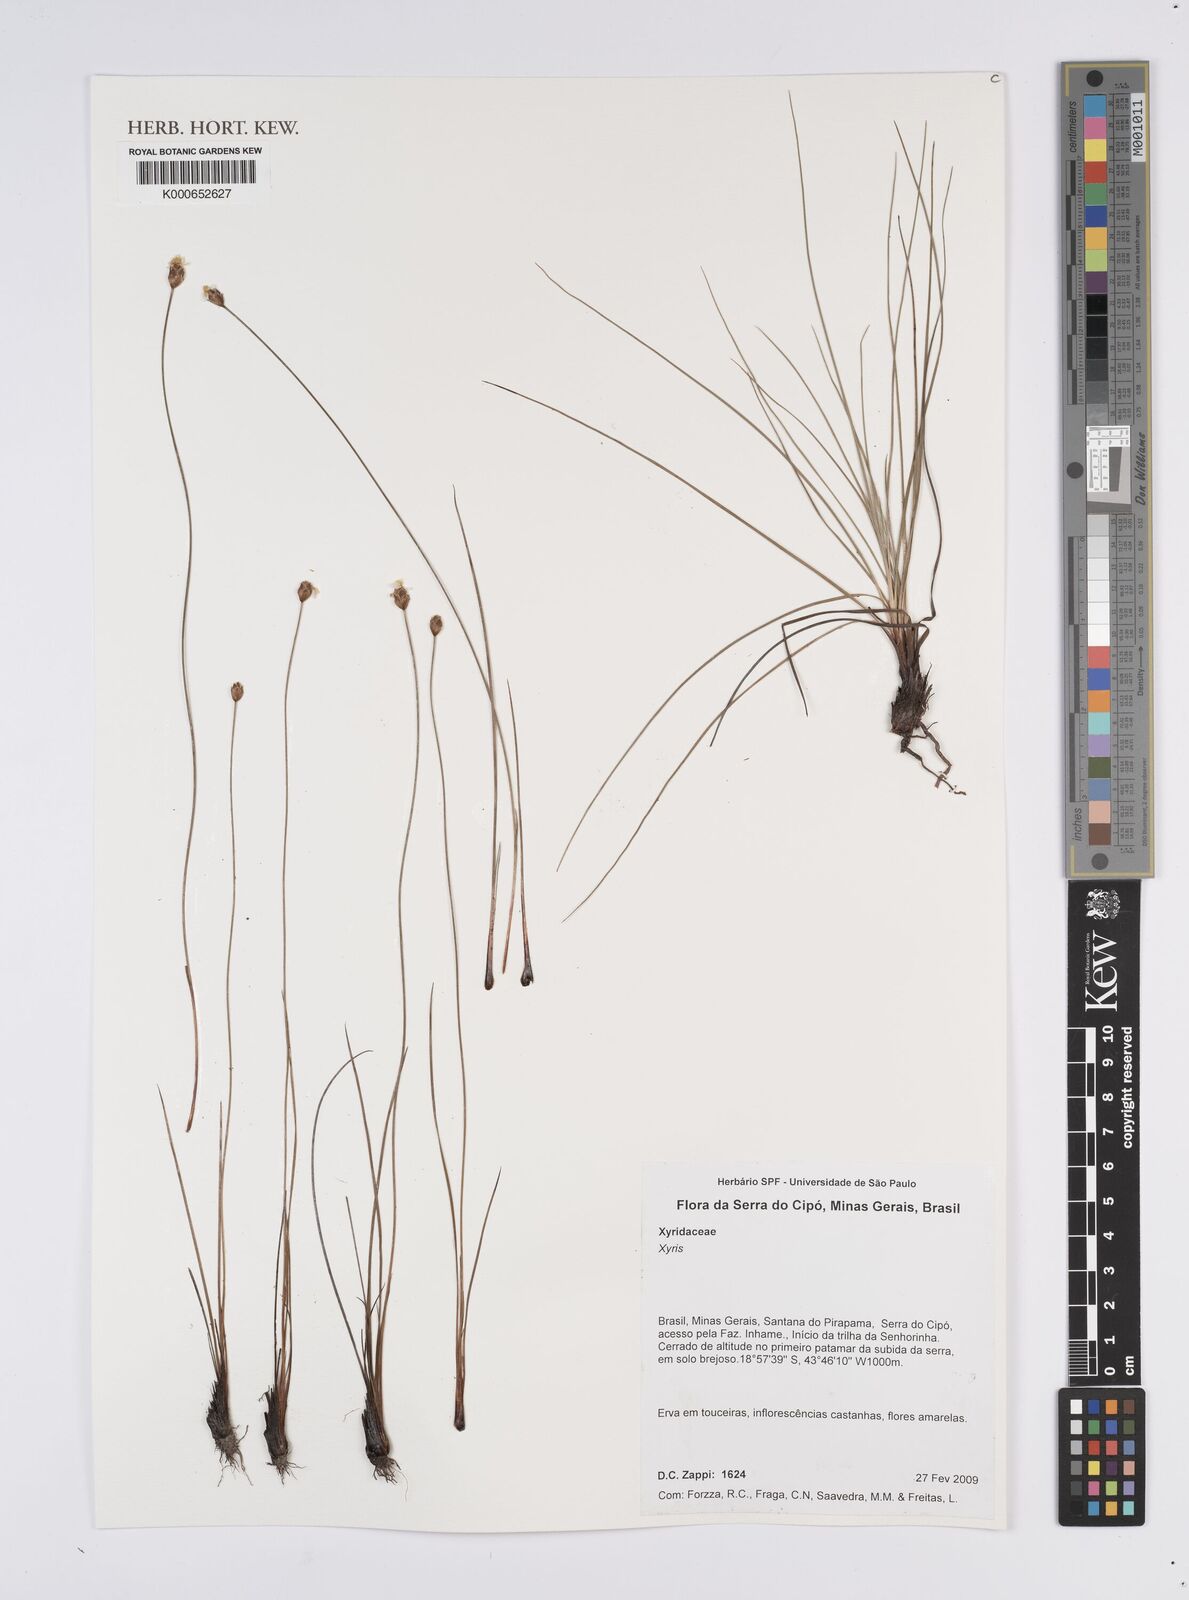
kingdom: Plantae
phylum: Tracheophyta
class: Liliopsida
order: Poales
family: Xyridaceae
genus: Xyris
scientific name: Xyris
